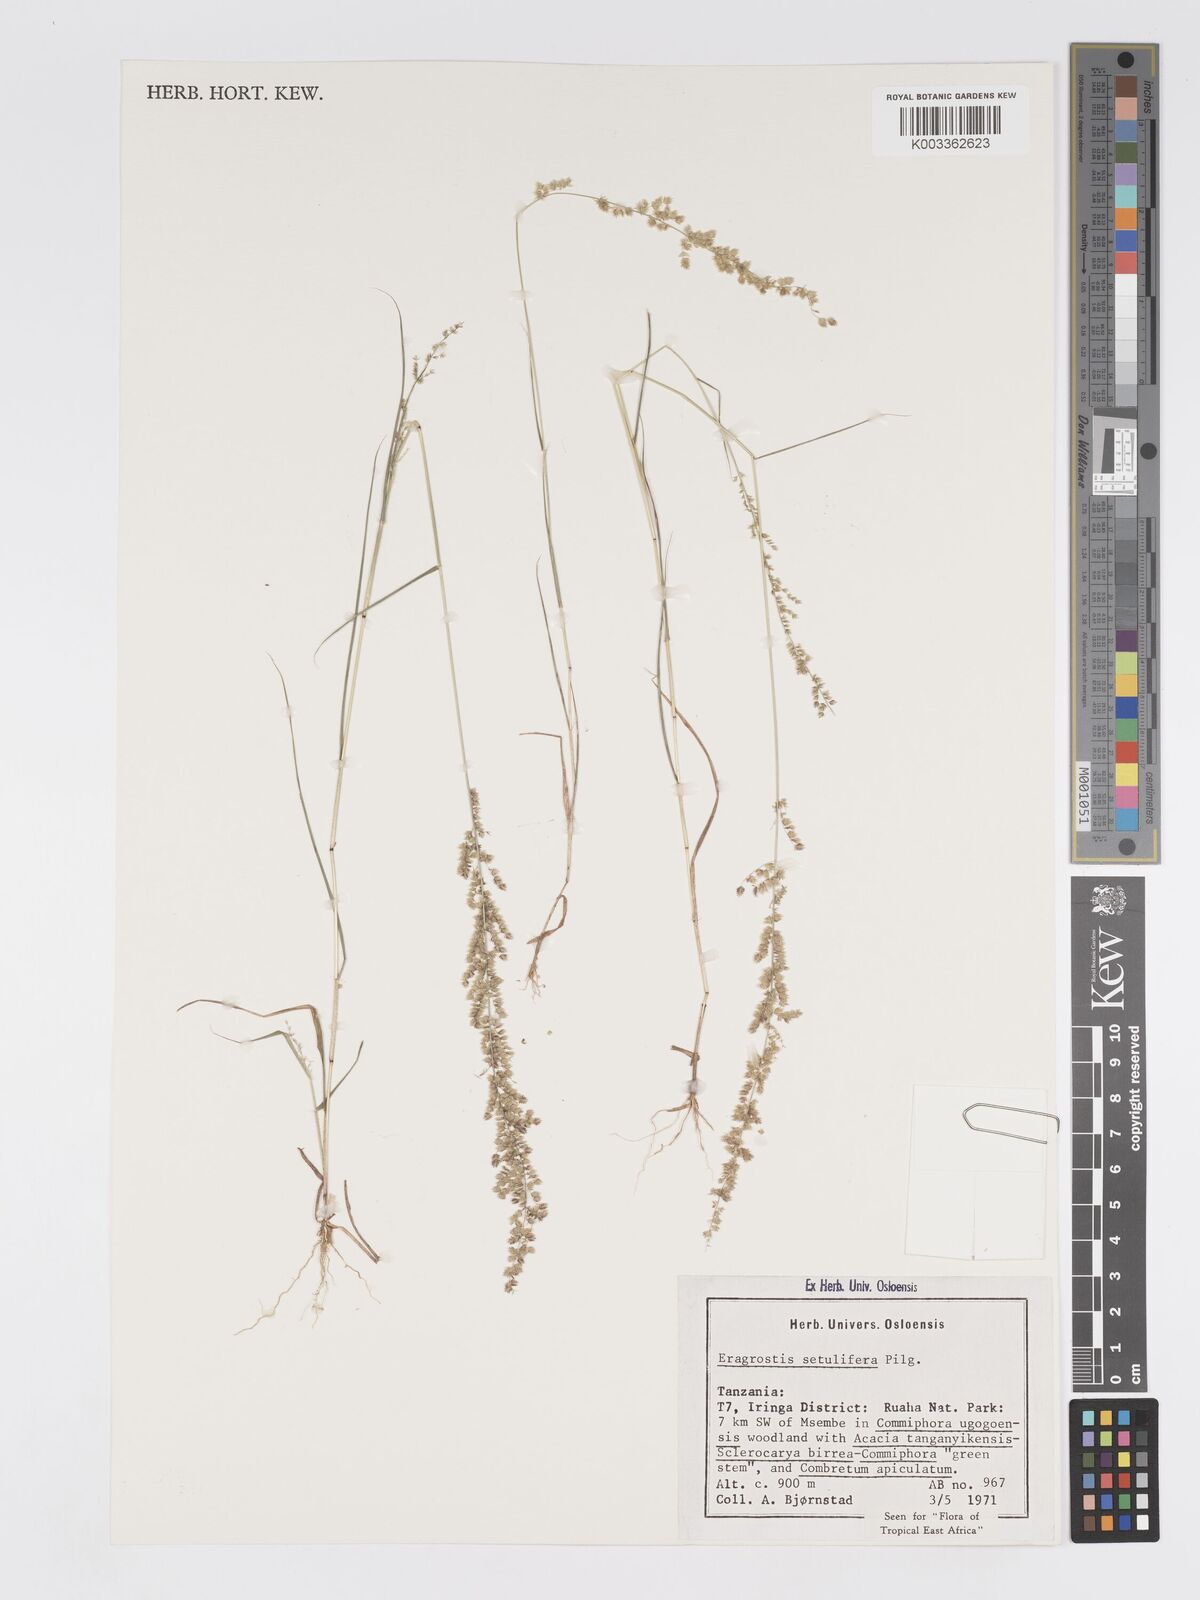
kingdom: Plantae
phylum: Tracheophyta
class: Liliopsida
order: Poales
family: Poaceae
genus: Eragrostis
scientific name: Eragrostis setulifera
